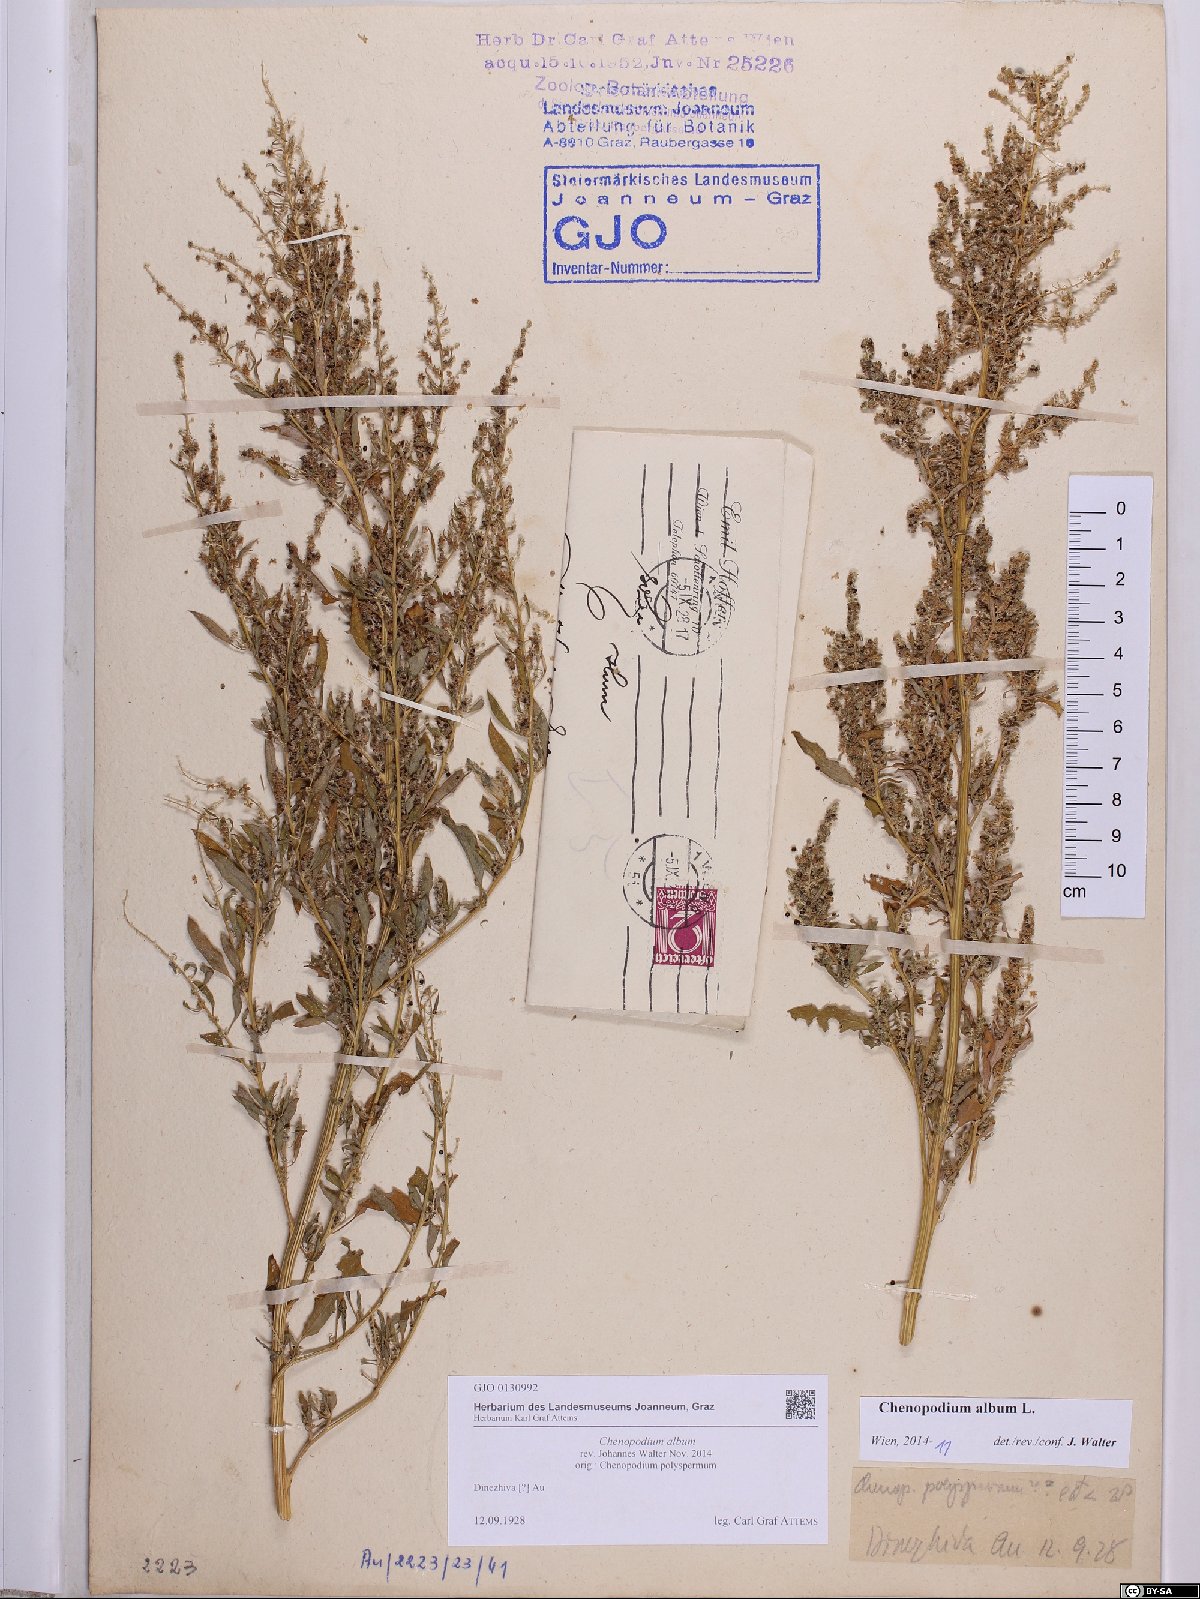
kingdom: Plantae
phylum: Tracheophyta
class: Magnoliopsida
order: Caryophyllales
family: Amaranthaceae
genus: Chenopodium
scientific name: Chenopodium album
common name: Fat-hen
